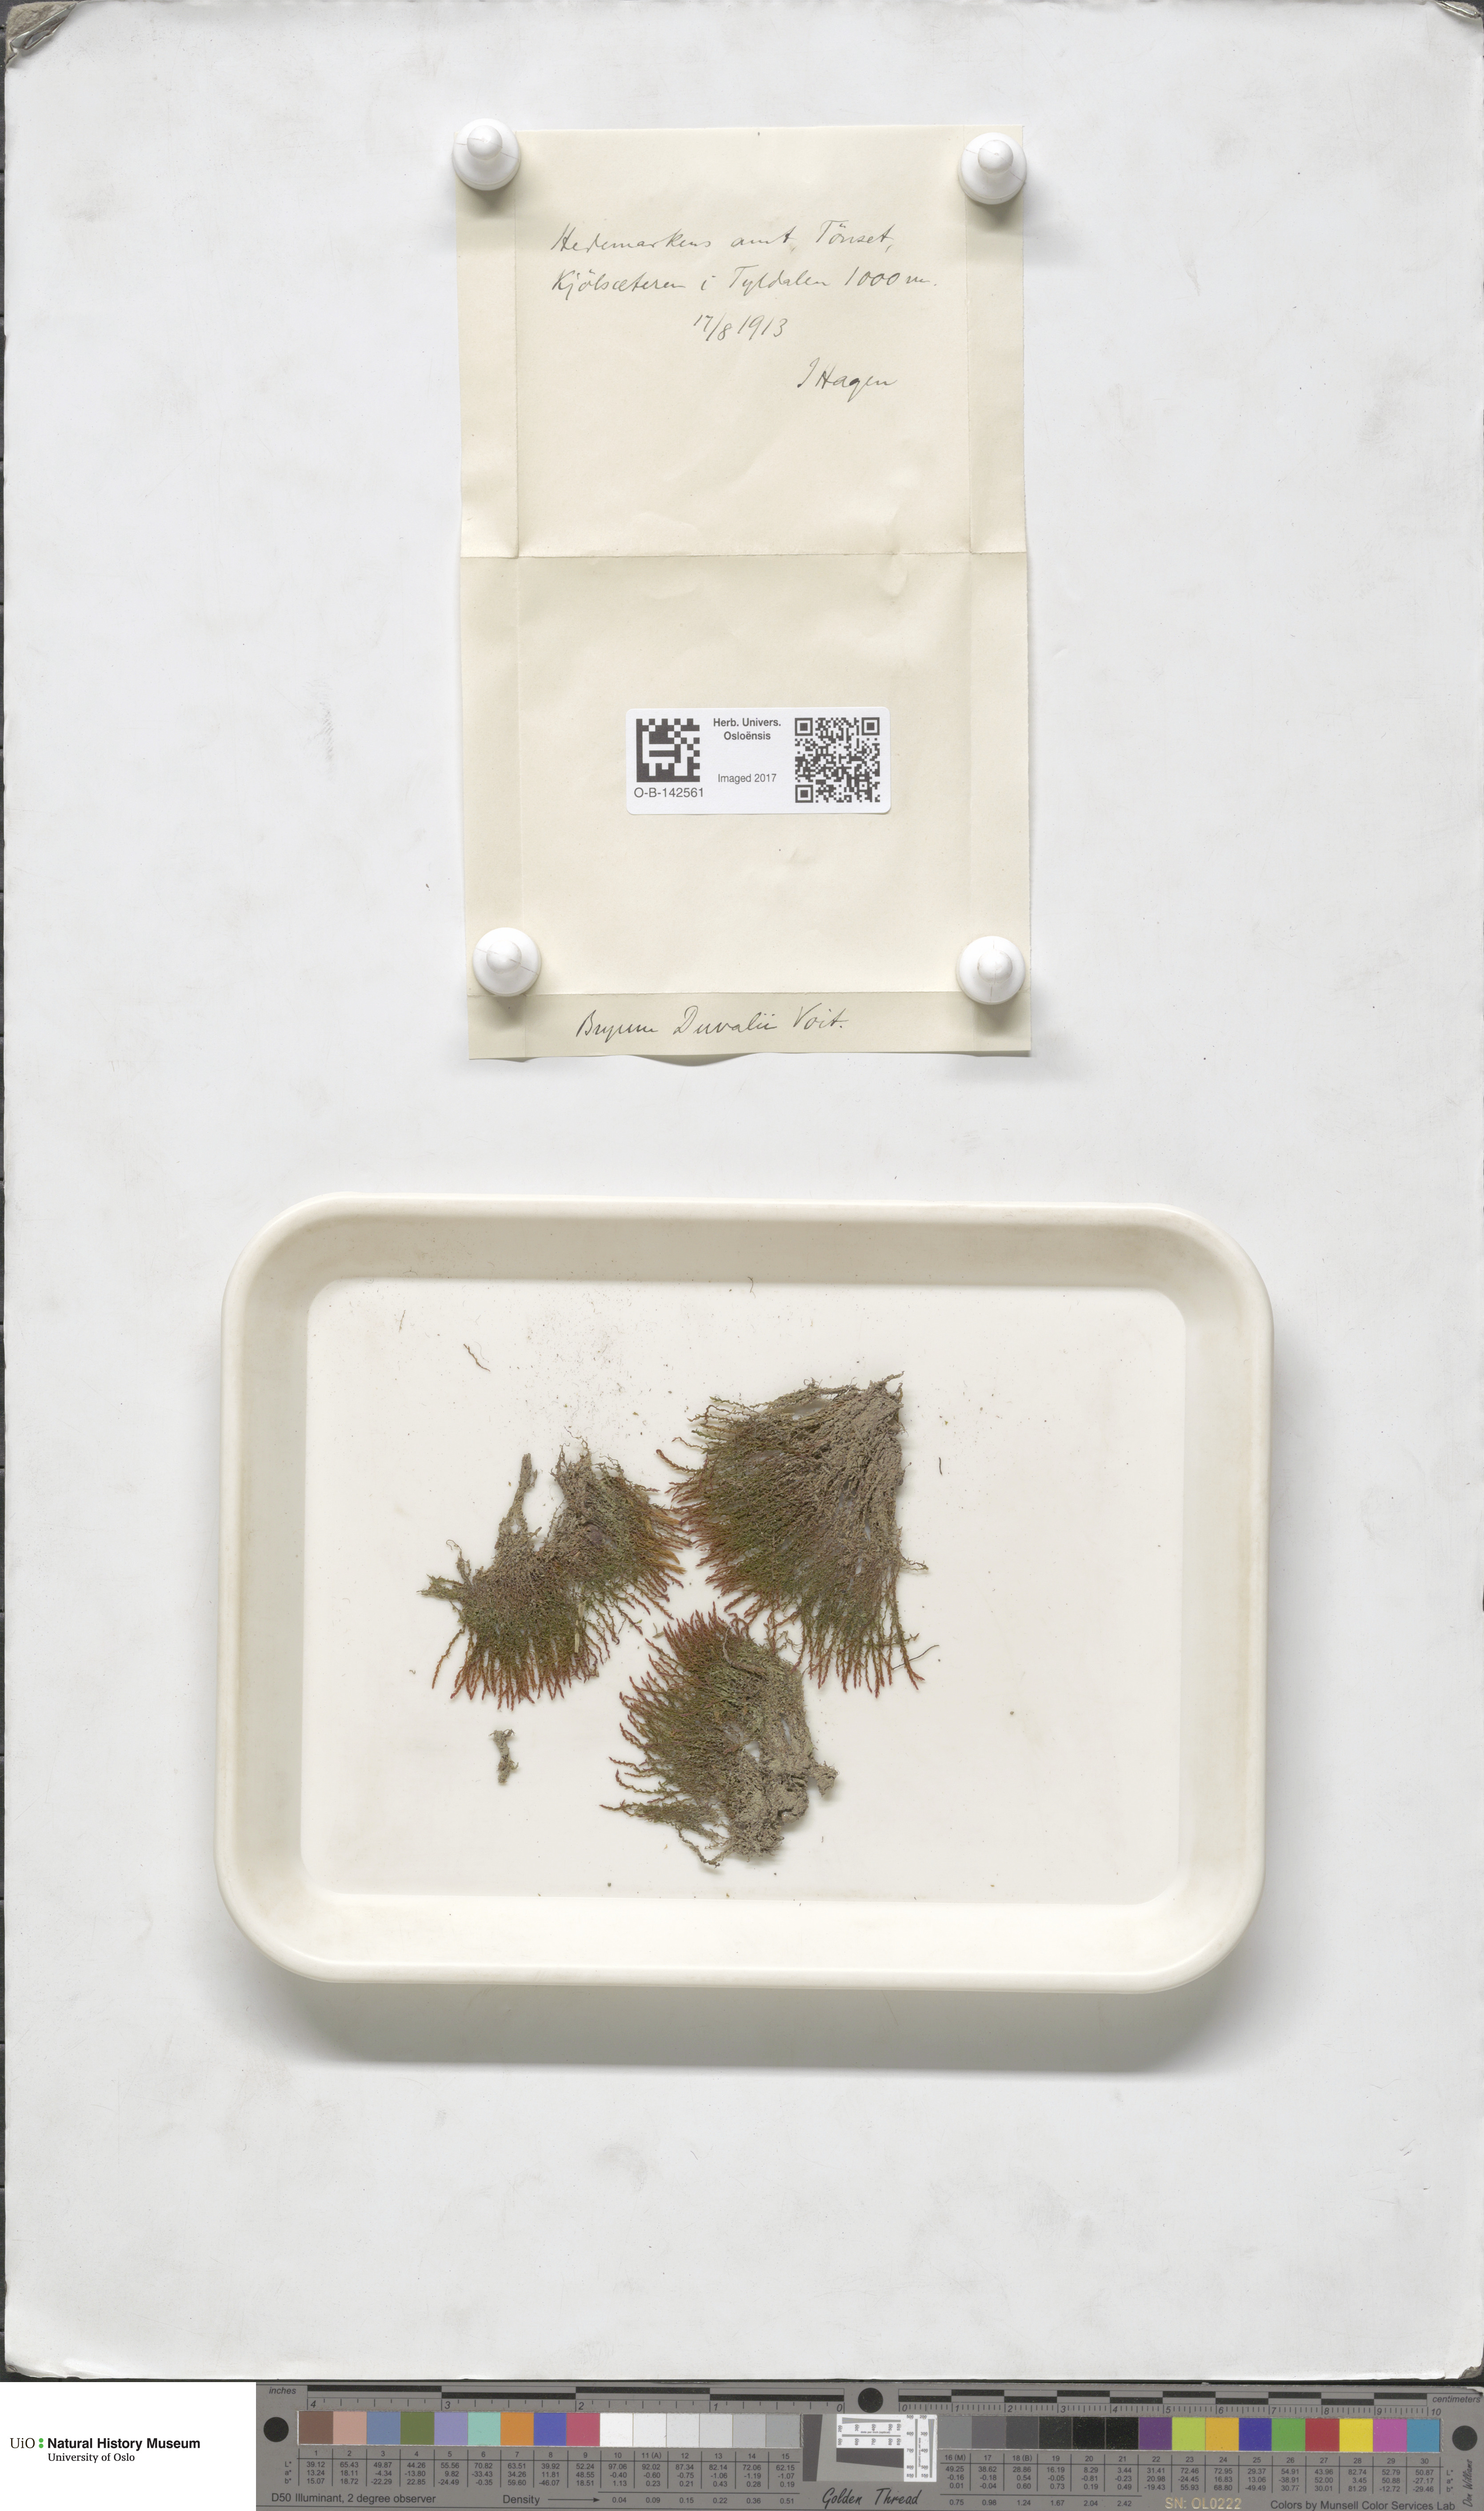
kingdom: Plantae
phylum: Bryophyta
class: Bryopsida
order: Bryales
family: Bryaceae
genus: Ptychostomum
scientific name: Ptychostomum weigelii
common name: Weigel's bryum moss
